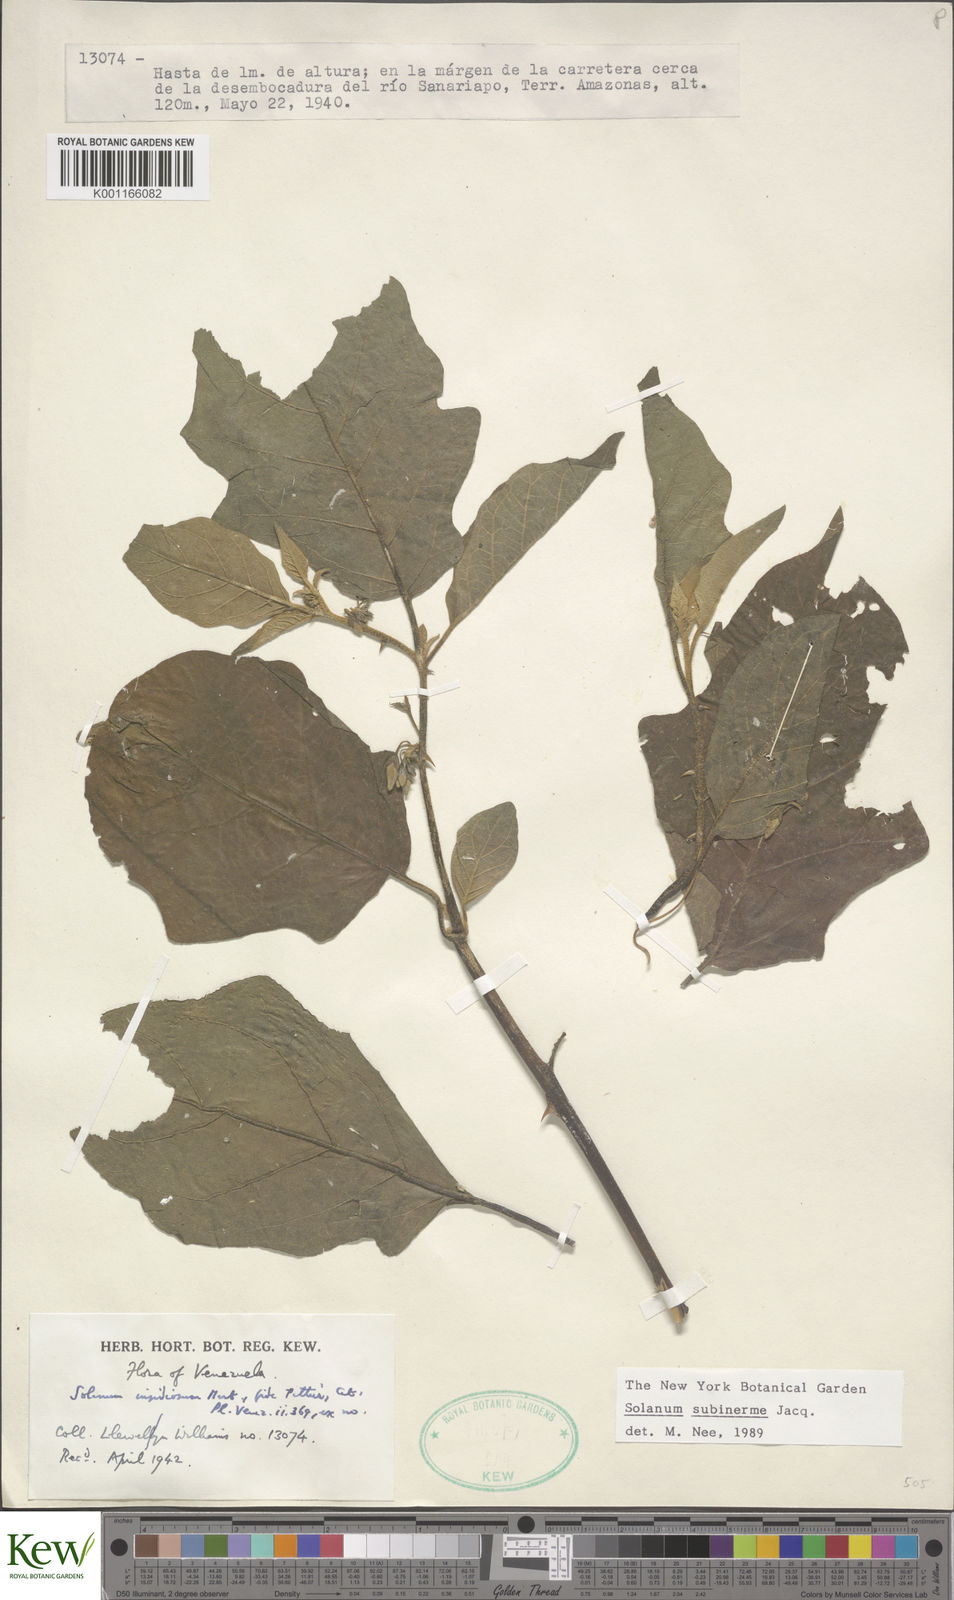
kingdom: Plantae
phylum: Tracheophyta
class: Magnoliopsida
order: Solanales
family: Solanaceae
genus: Solanum
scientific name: Solanum subinerme
